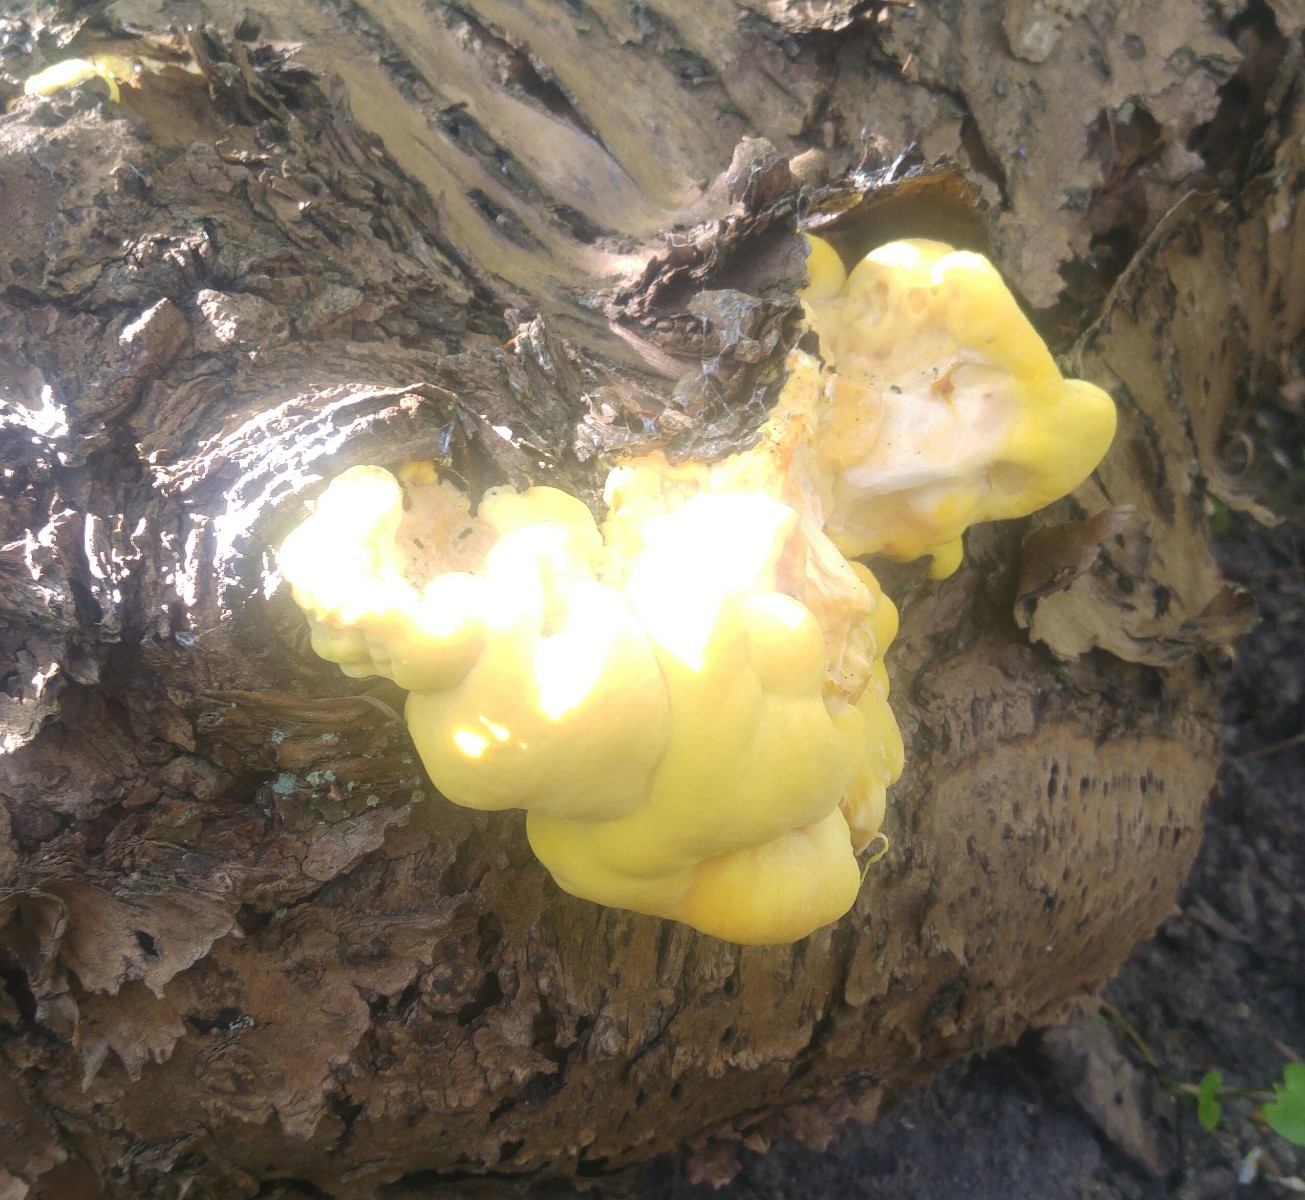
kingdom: Fungi
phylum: Basidiomycota
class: Agaricomycetes
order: Polyporales
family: Laetiporaceae
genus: Laetiporus
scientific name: Laetiporus sulphureus
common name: svovlporesvamp
